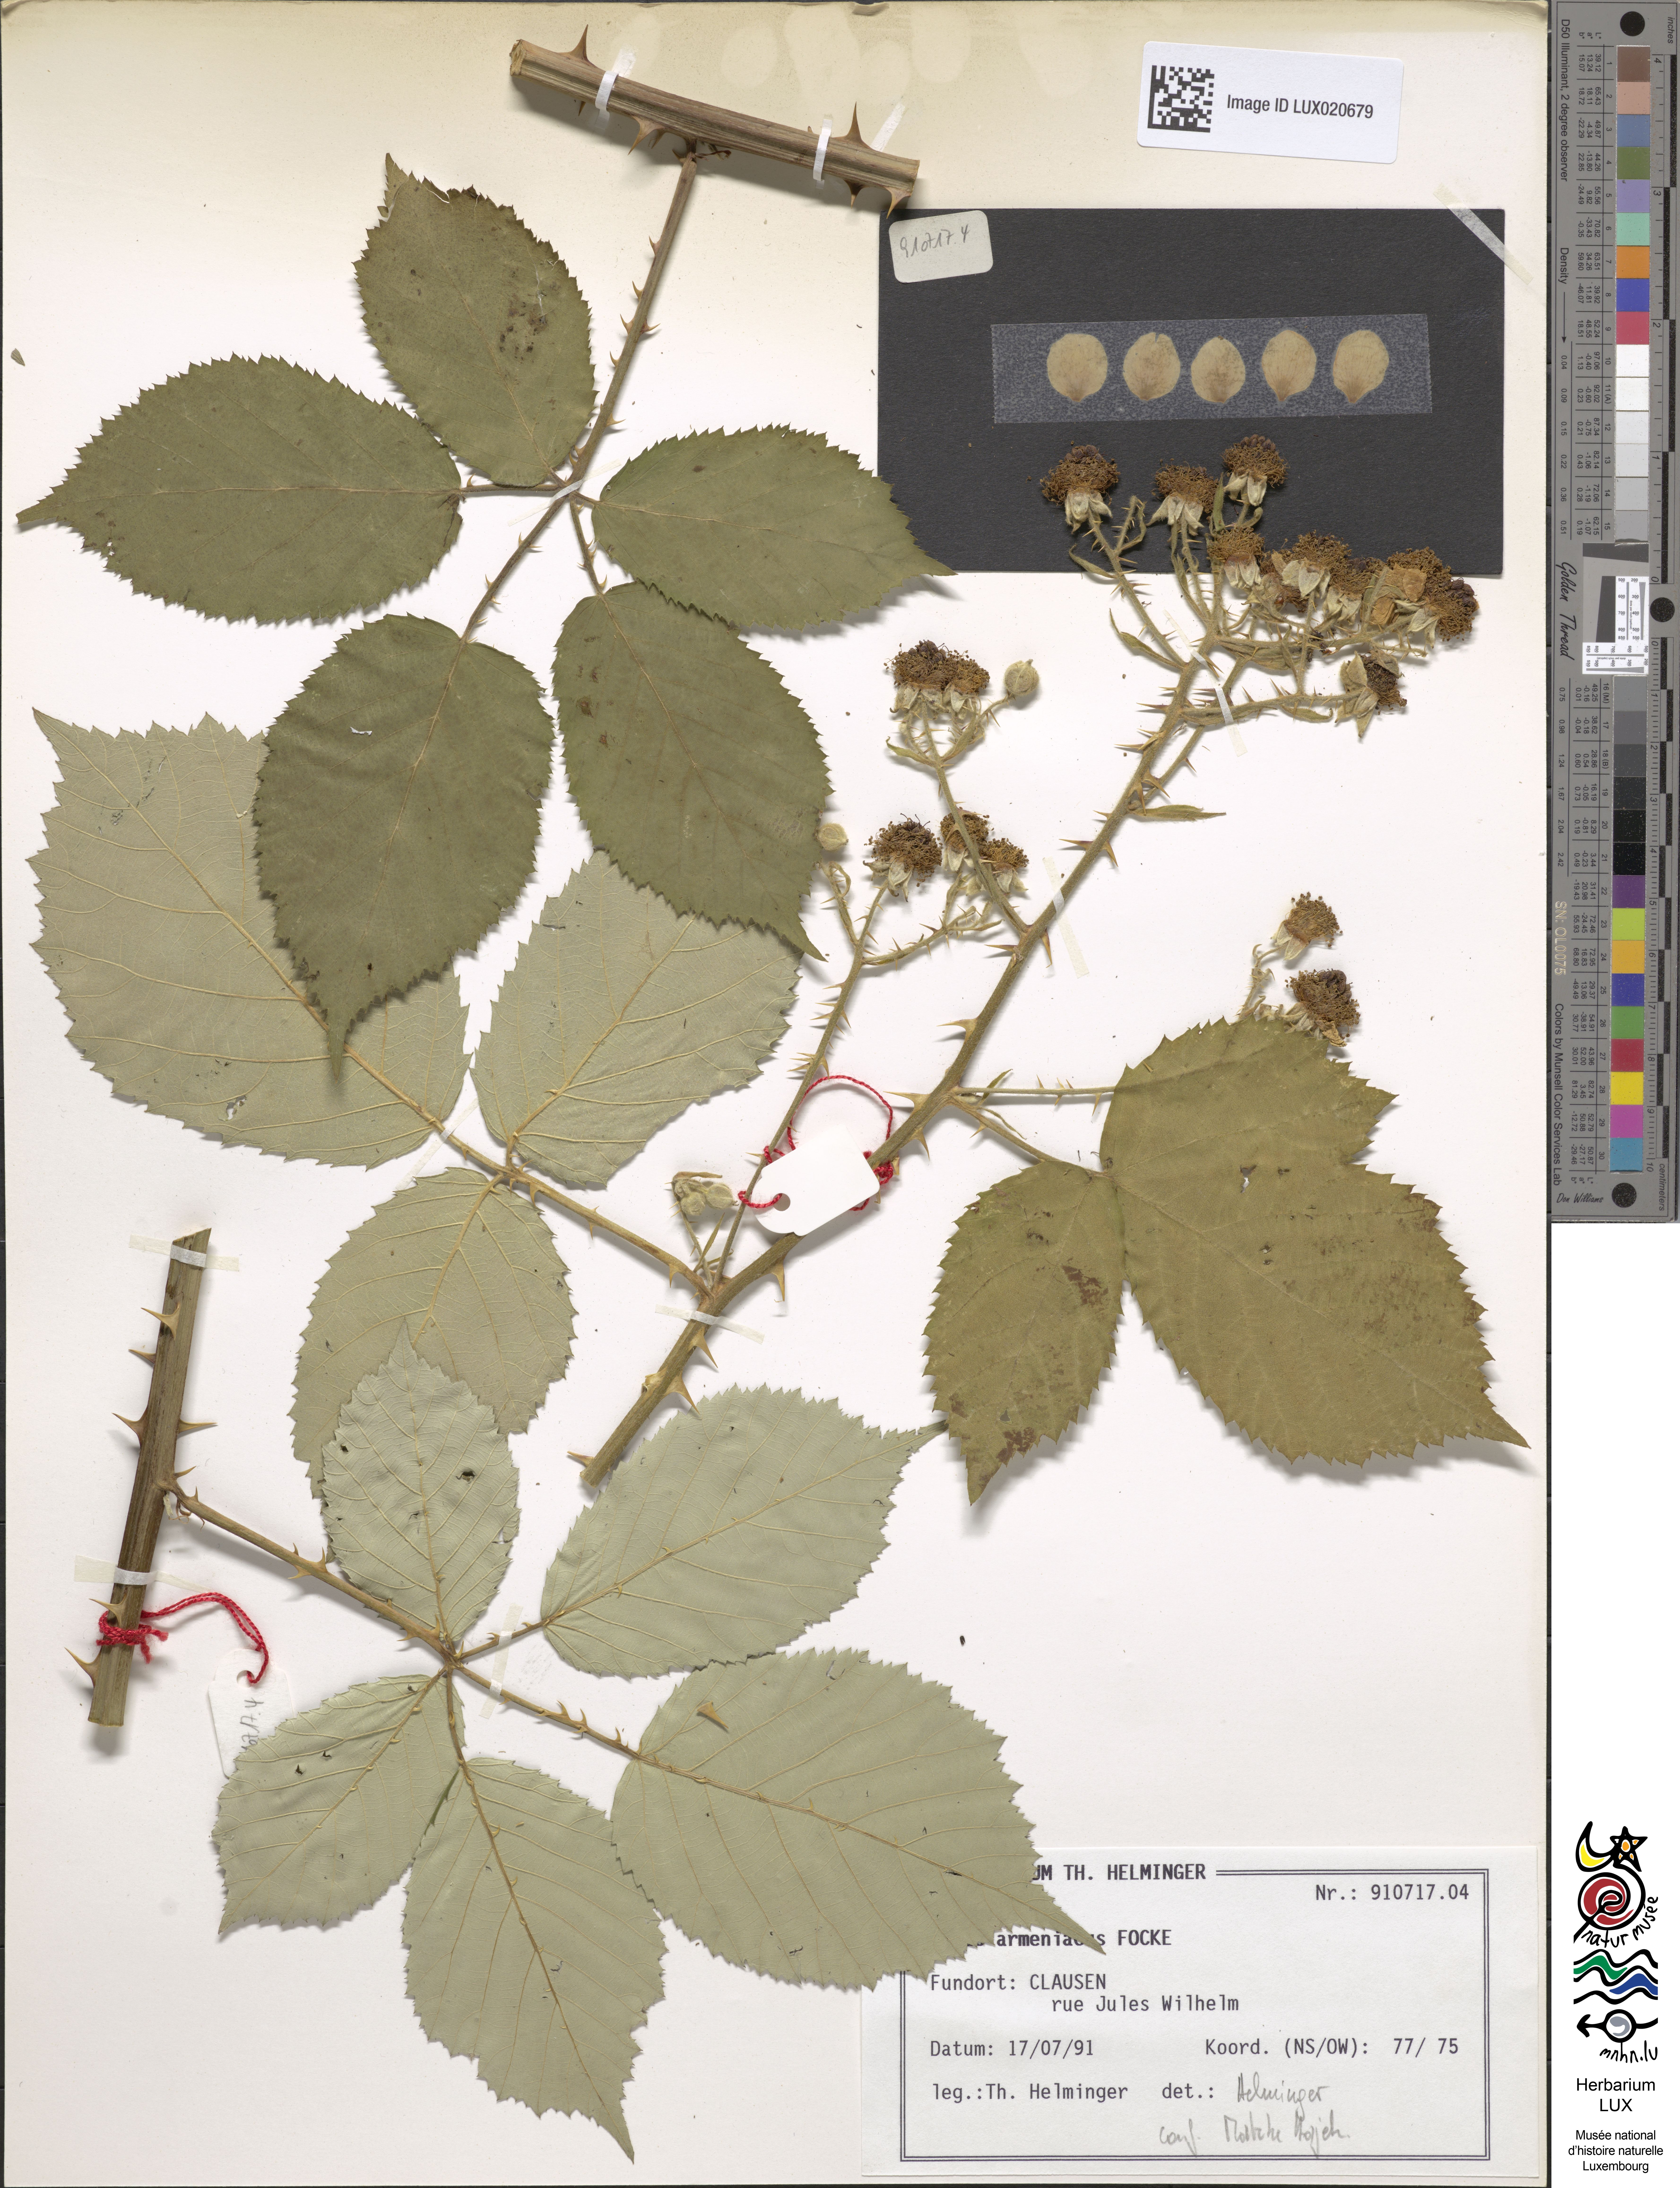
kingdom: Plantae
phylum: Tracheophyta
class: Magnoliopsida
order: Rosales
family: Rosaceae
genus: Rubus
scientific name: Rubus armeniacus
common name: Himalayan blackberry
